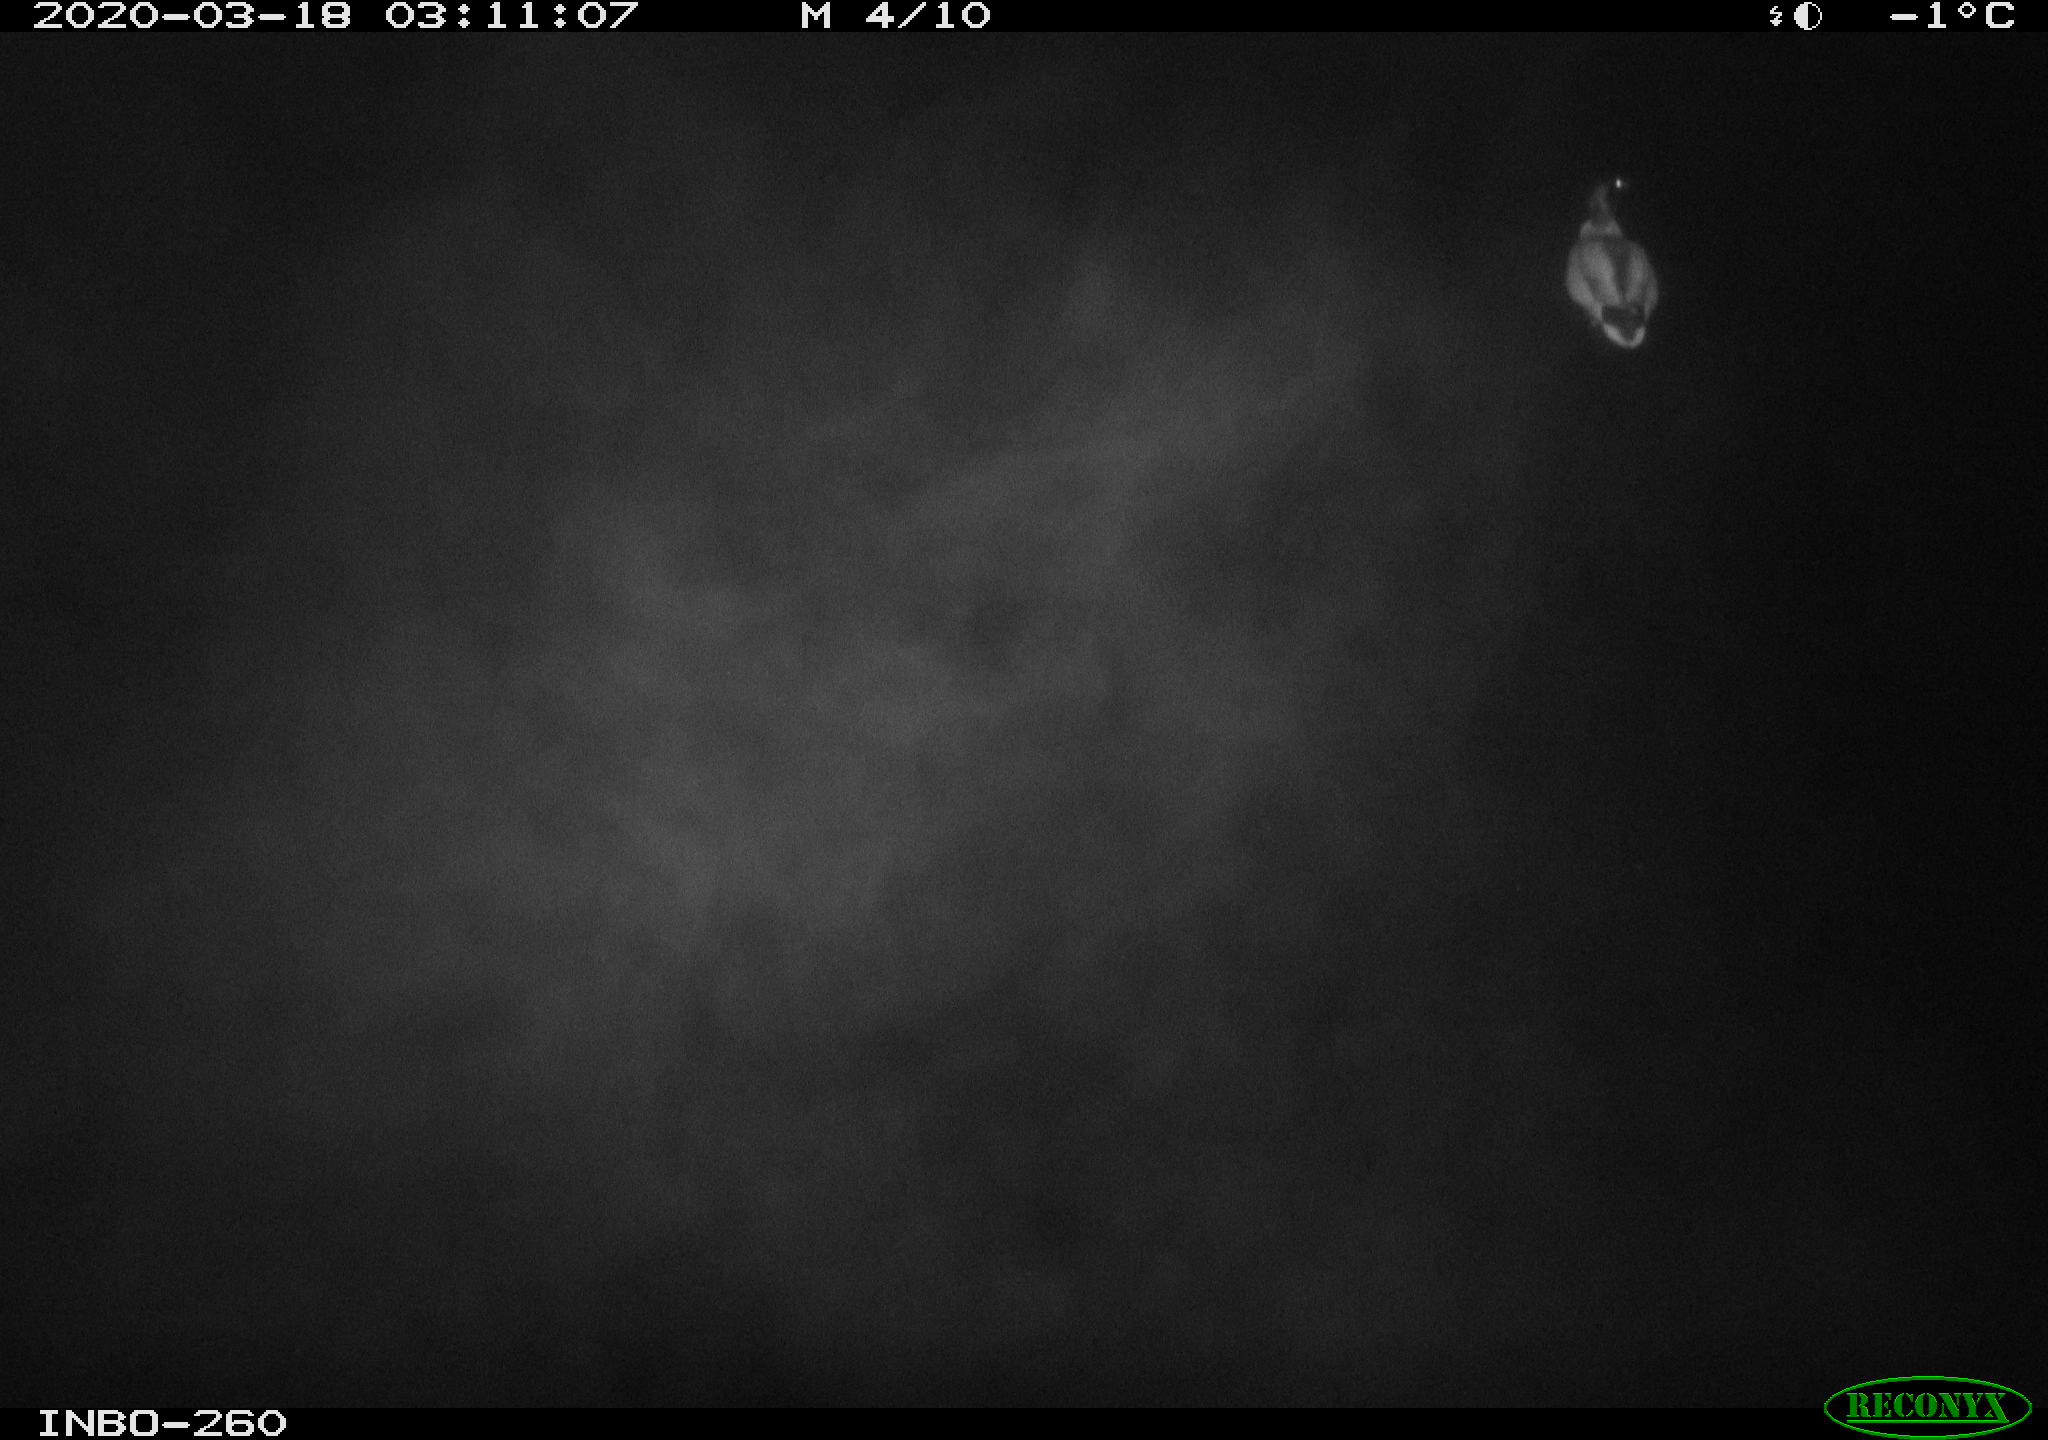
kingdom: Animalia
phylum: Chordata
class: Aves
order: Anseriformes
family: Anatidae
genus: Anas
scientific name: Anas platyrhynchos
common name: Mallard
